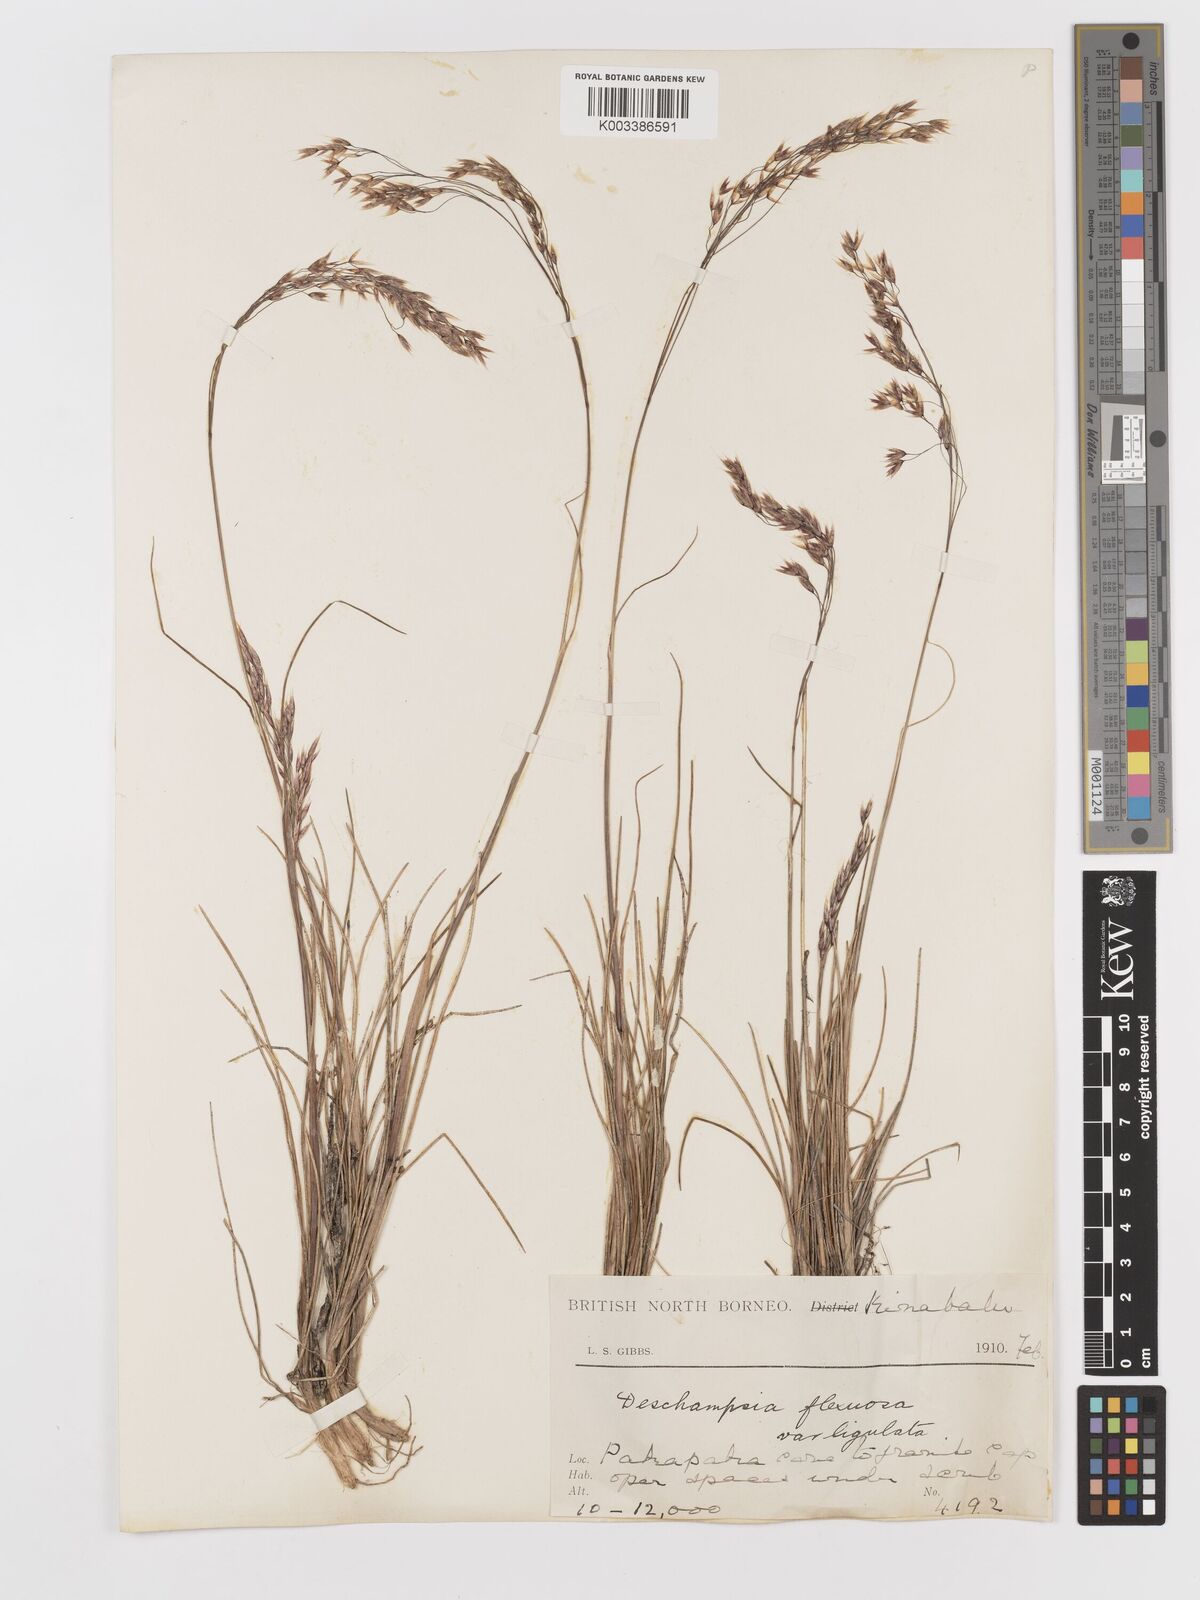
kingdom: Plantae
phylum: Tracheophyta
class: Liliopsida
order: Poales
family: Poaceae
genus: Avenella
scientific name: Avenella flexuosa
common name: Wavy hairgrass
